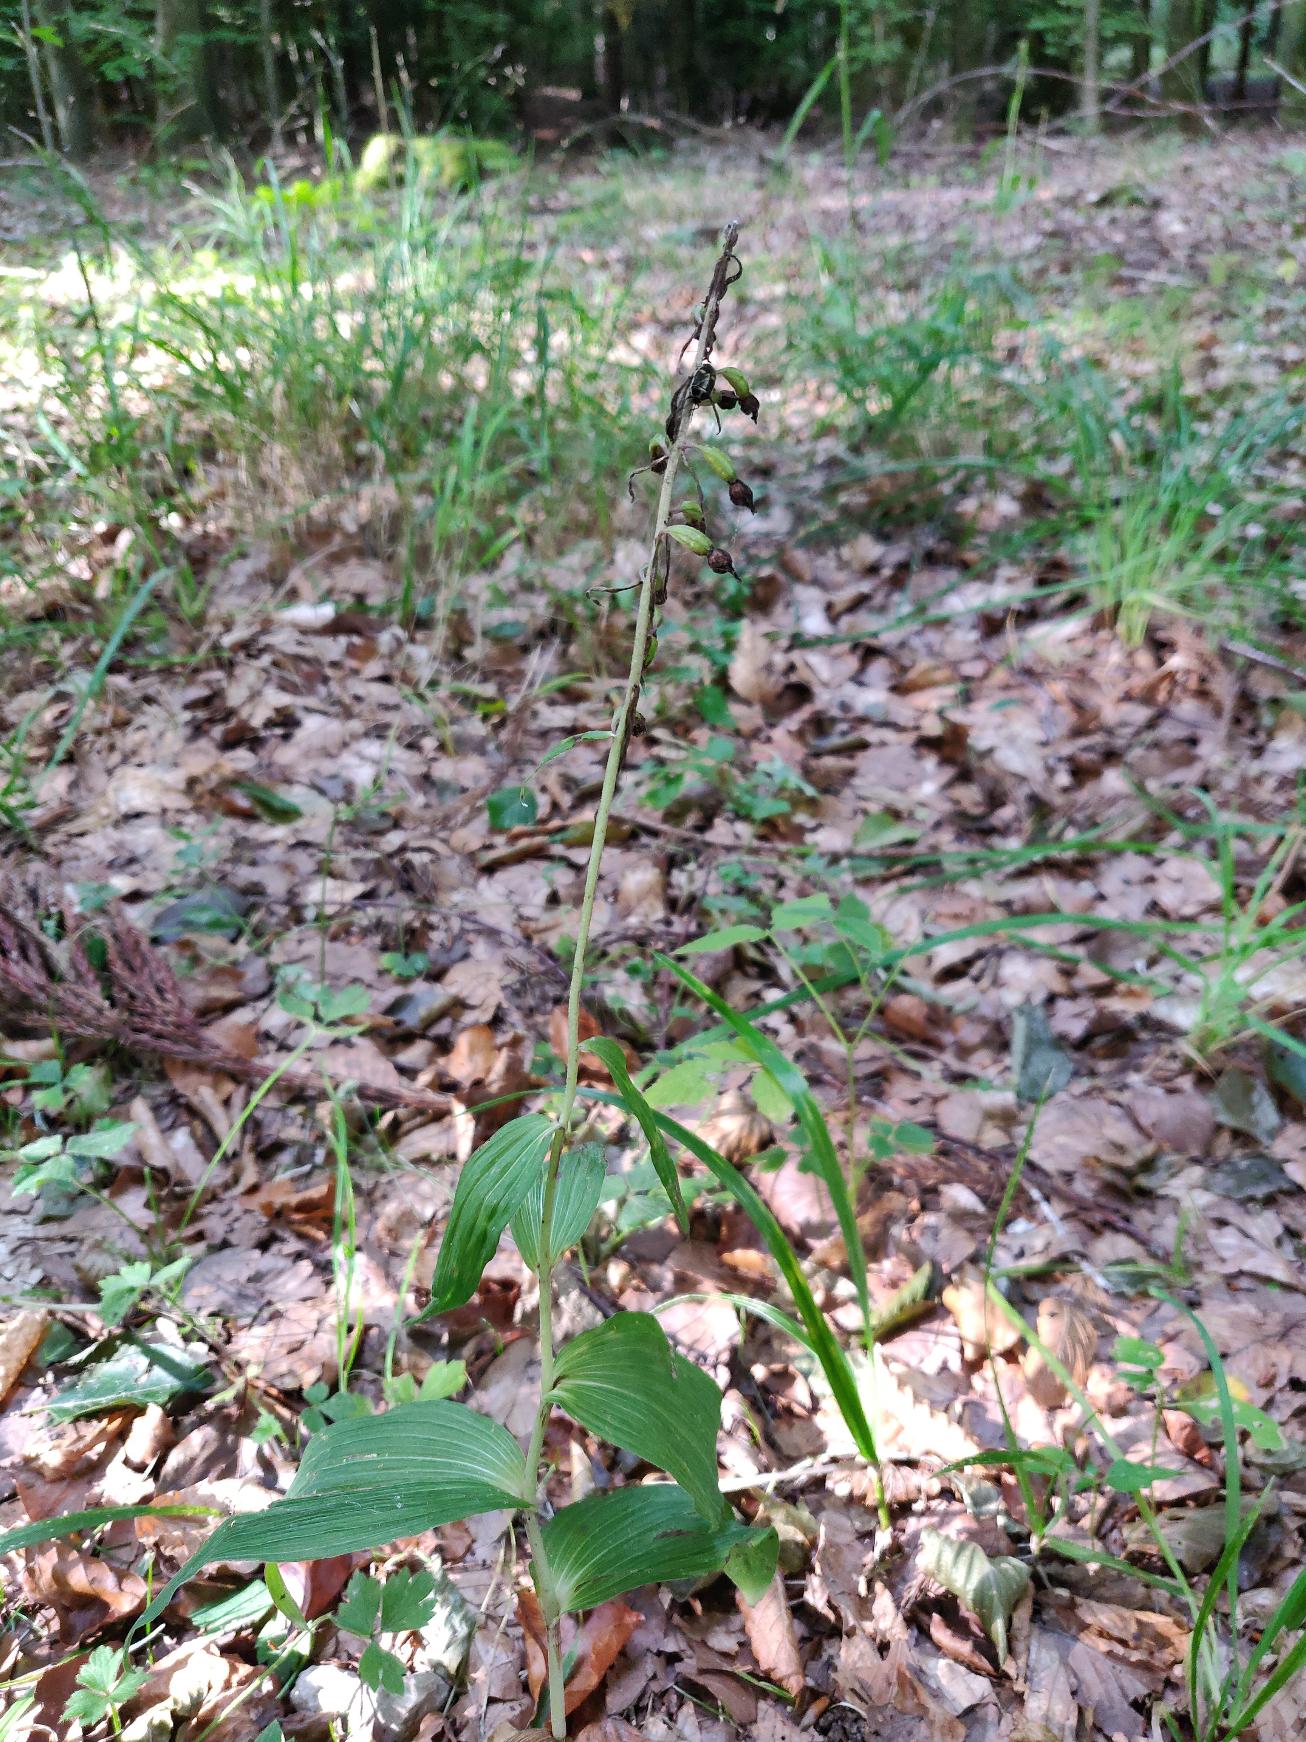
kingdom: Plantae
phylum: Tracheophyta
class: Liliopsida
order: Asparagales
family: Orchidaceae
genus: Epipactis
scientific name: Epipactis helleborine
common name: Skov-hullæbe
